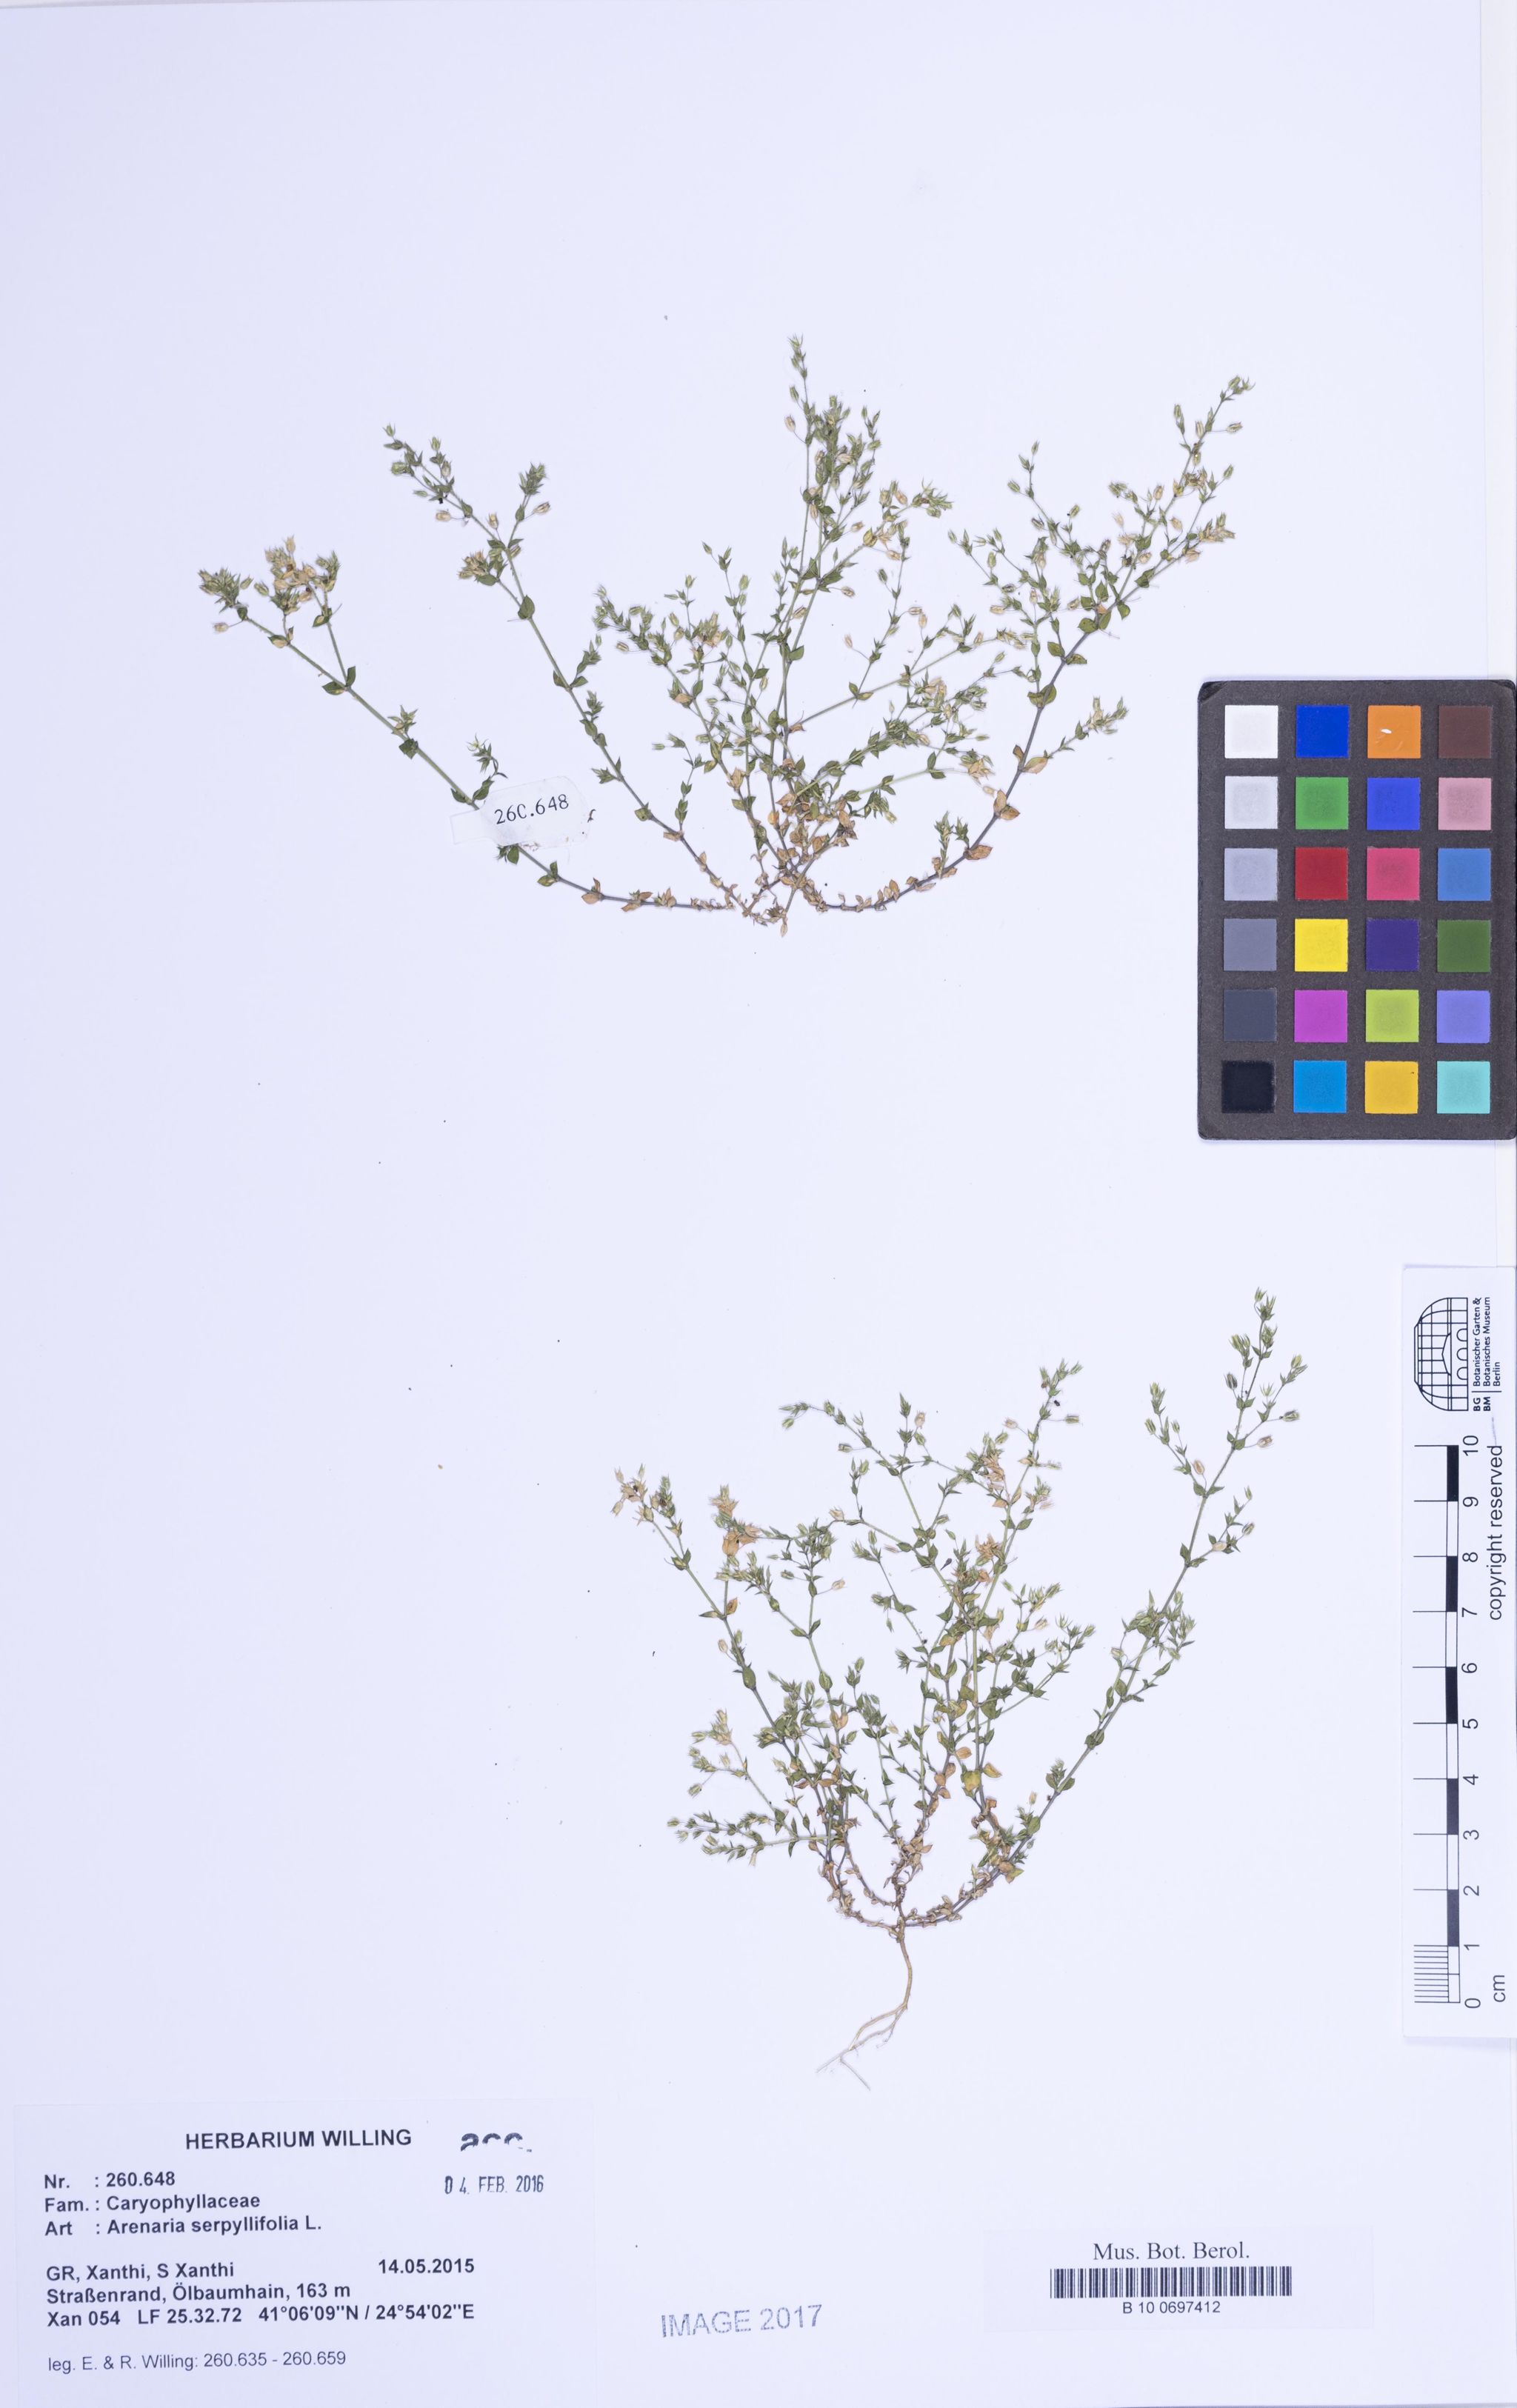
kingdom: Plantae
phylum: Tracheophyta
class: Magnoliopsida
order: Caryophyllales
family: Caryophyllaceae
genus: Arenaria
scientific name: Arenaria serpyllifolia
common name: Thyme-leaved sandwort
